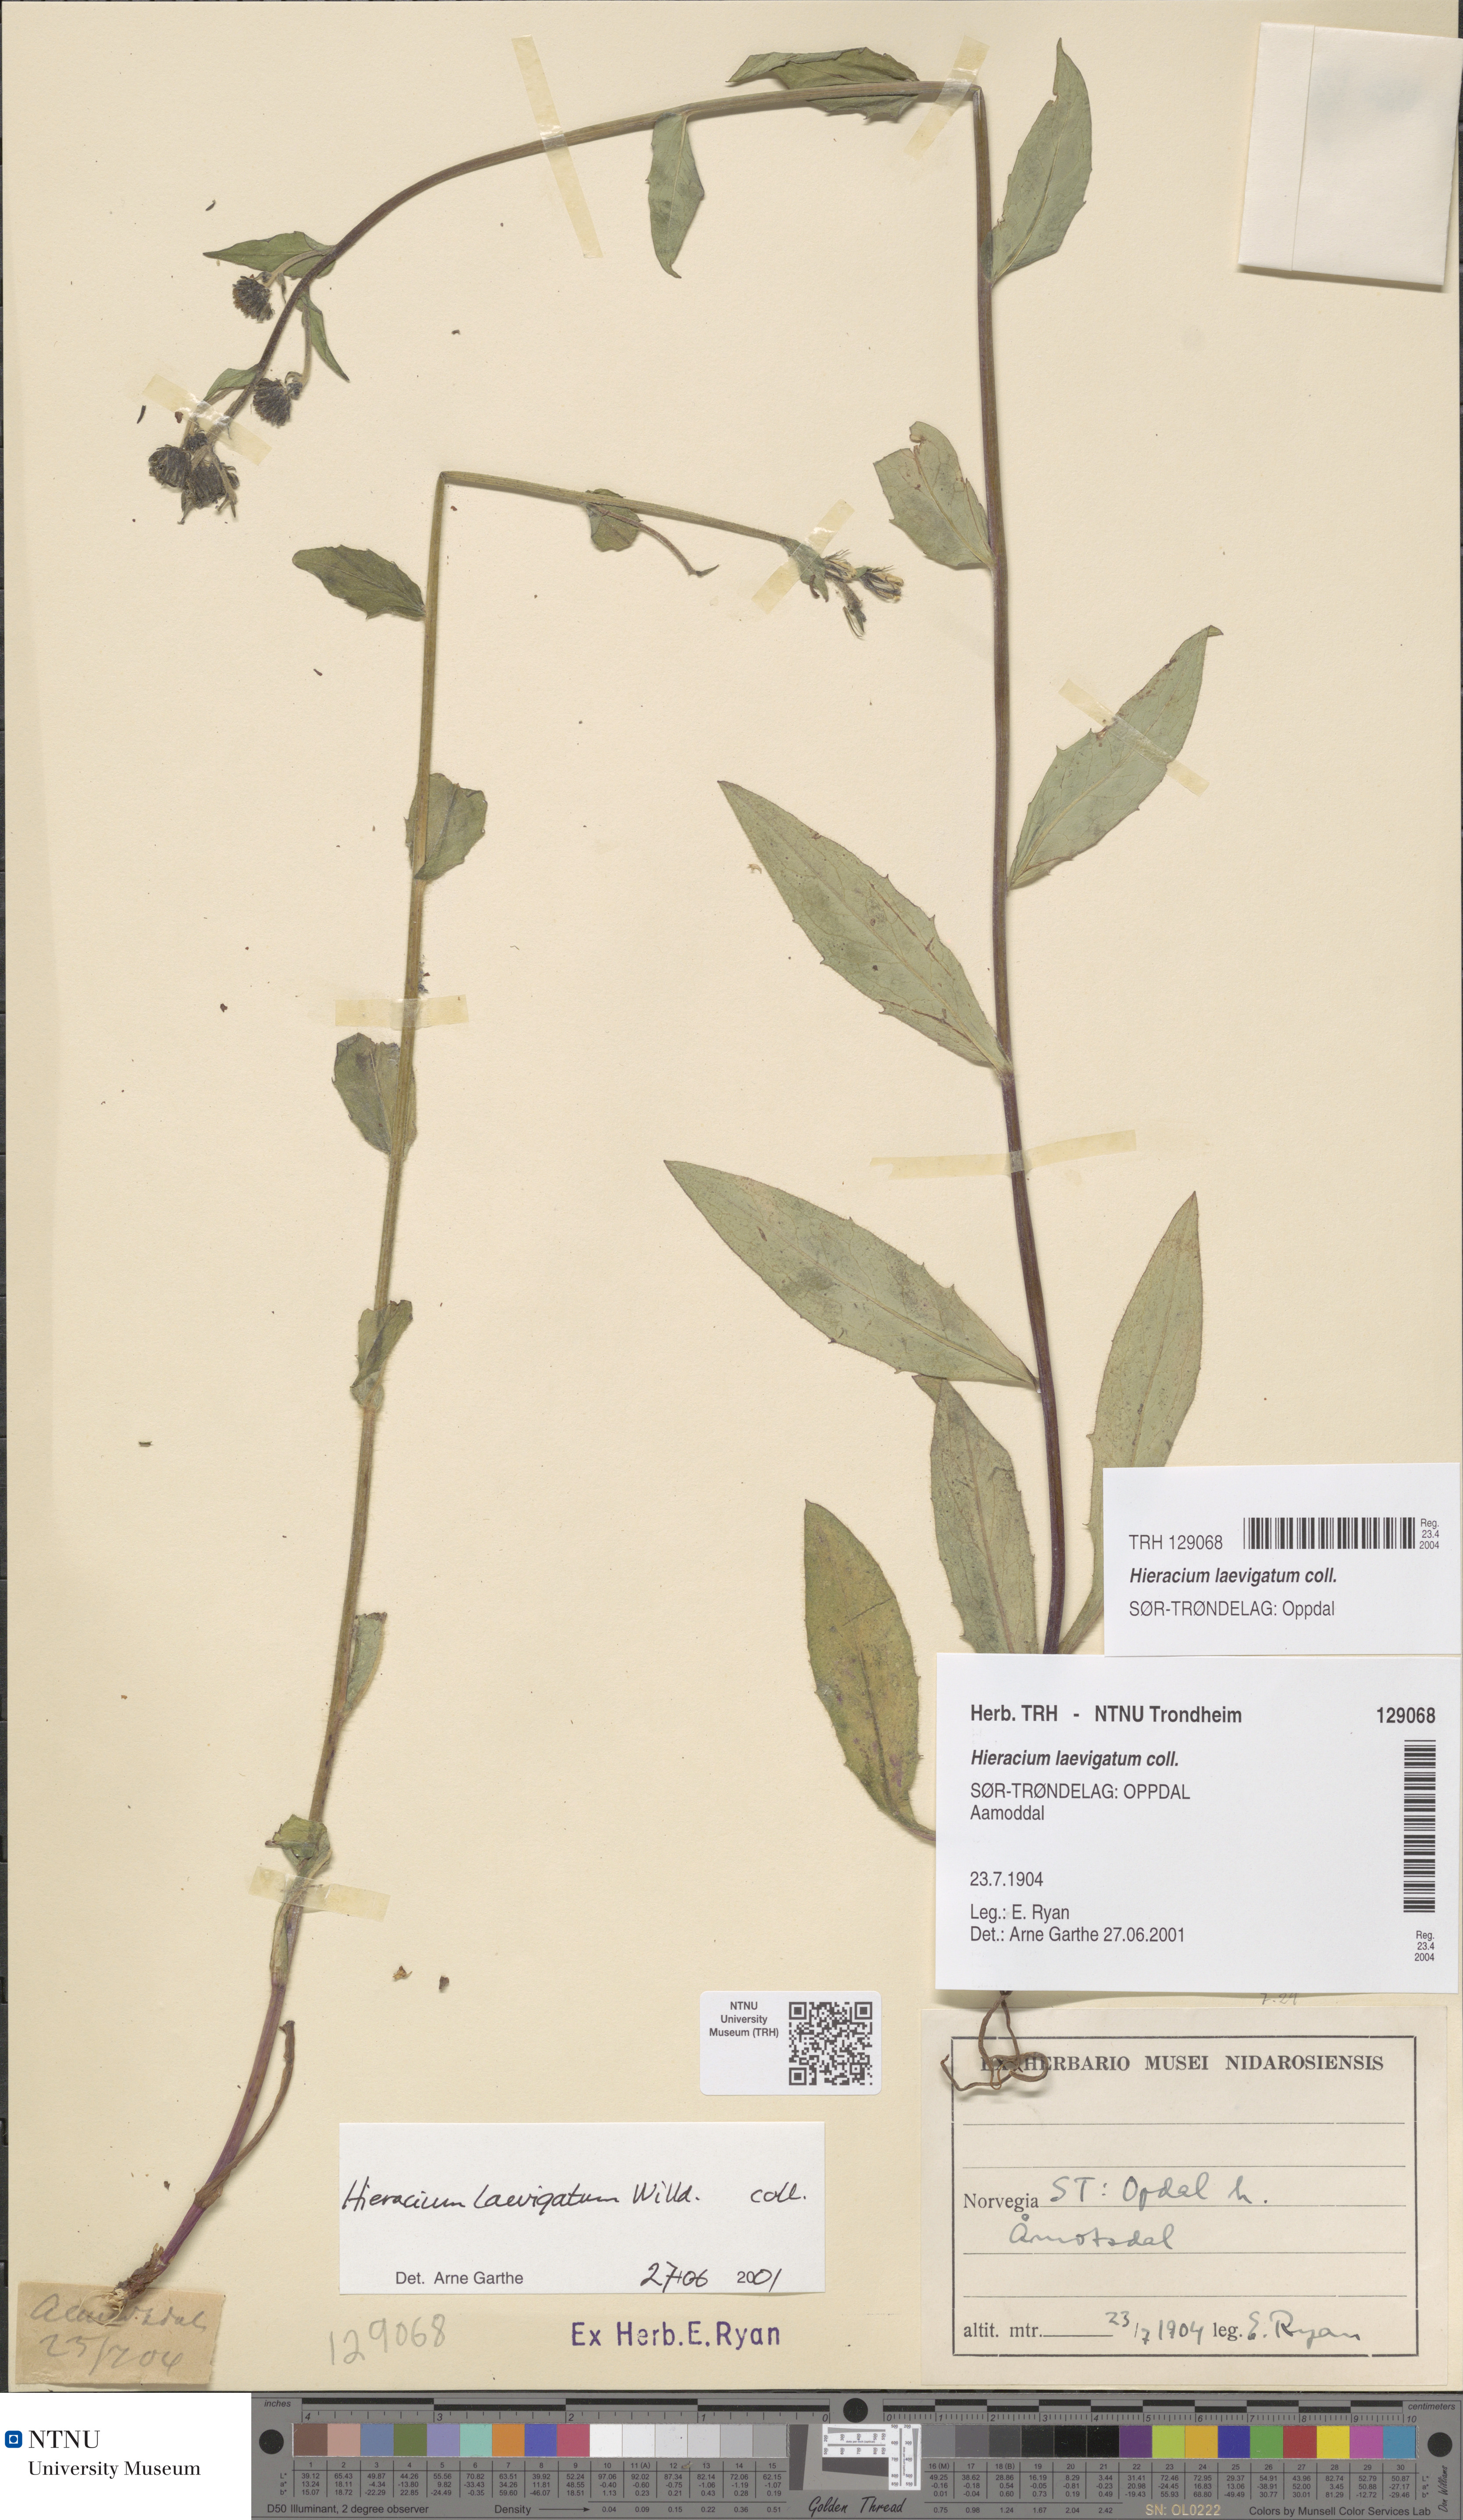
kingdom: Plantae
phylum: Tracheophyta
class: Magnoliopsida
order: Asterales
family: Asteraceae
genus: Hieracium
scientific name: Hieracium laevigatum
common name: Smooth hawkweed
